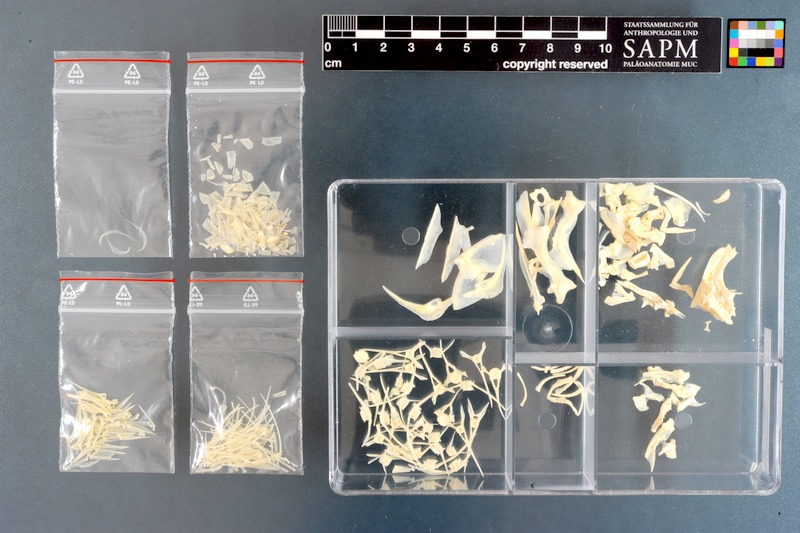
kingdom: Animalia
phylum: Chordata
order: Perciformes
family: Cheilodactylidae
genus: Chirodactylus
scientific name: Chirodactylus brachydactylus
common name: Butterfish
